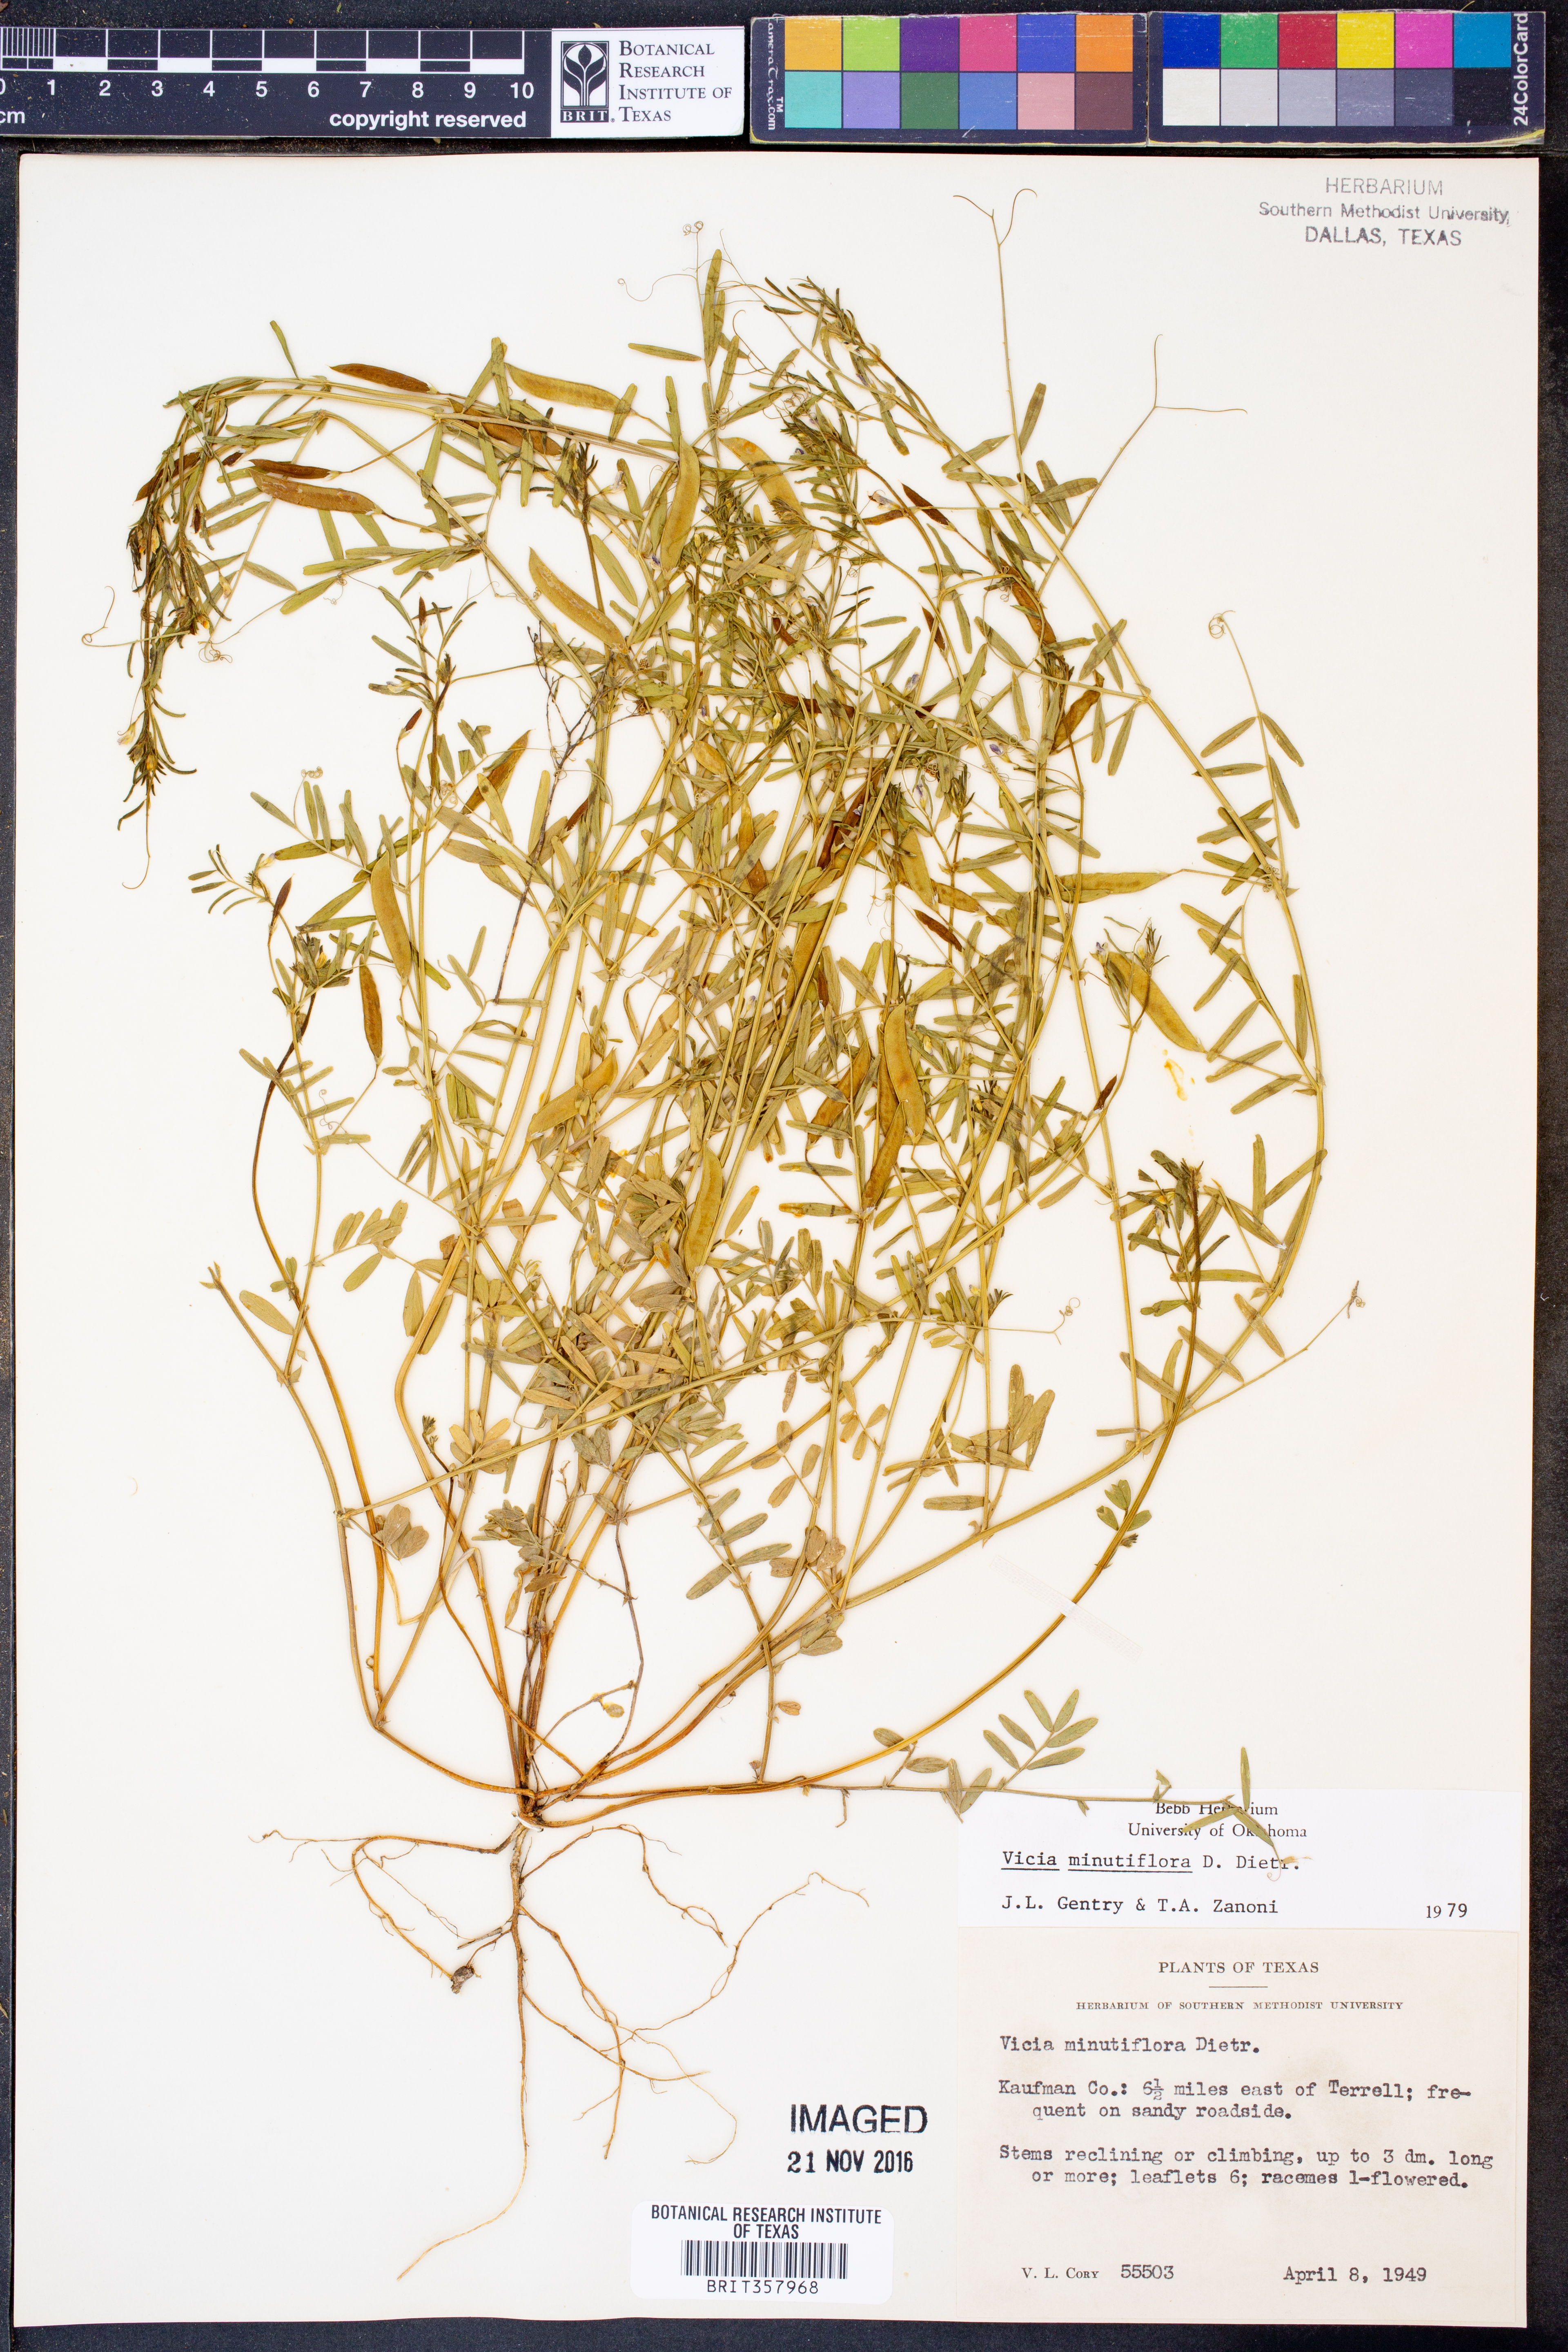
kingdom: Plantae
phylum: Tracheophyta
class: Magnoliopsida
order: Fabales
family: Fabaceae
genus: Vicia
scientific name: Vicia minutiflora
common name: Pygmy-flower vetch
